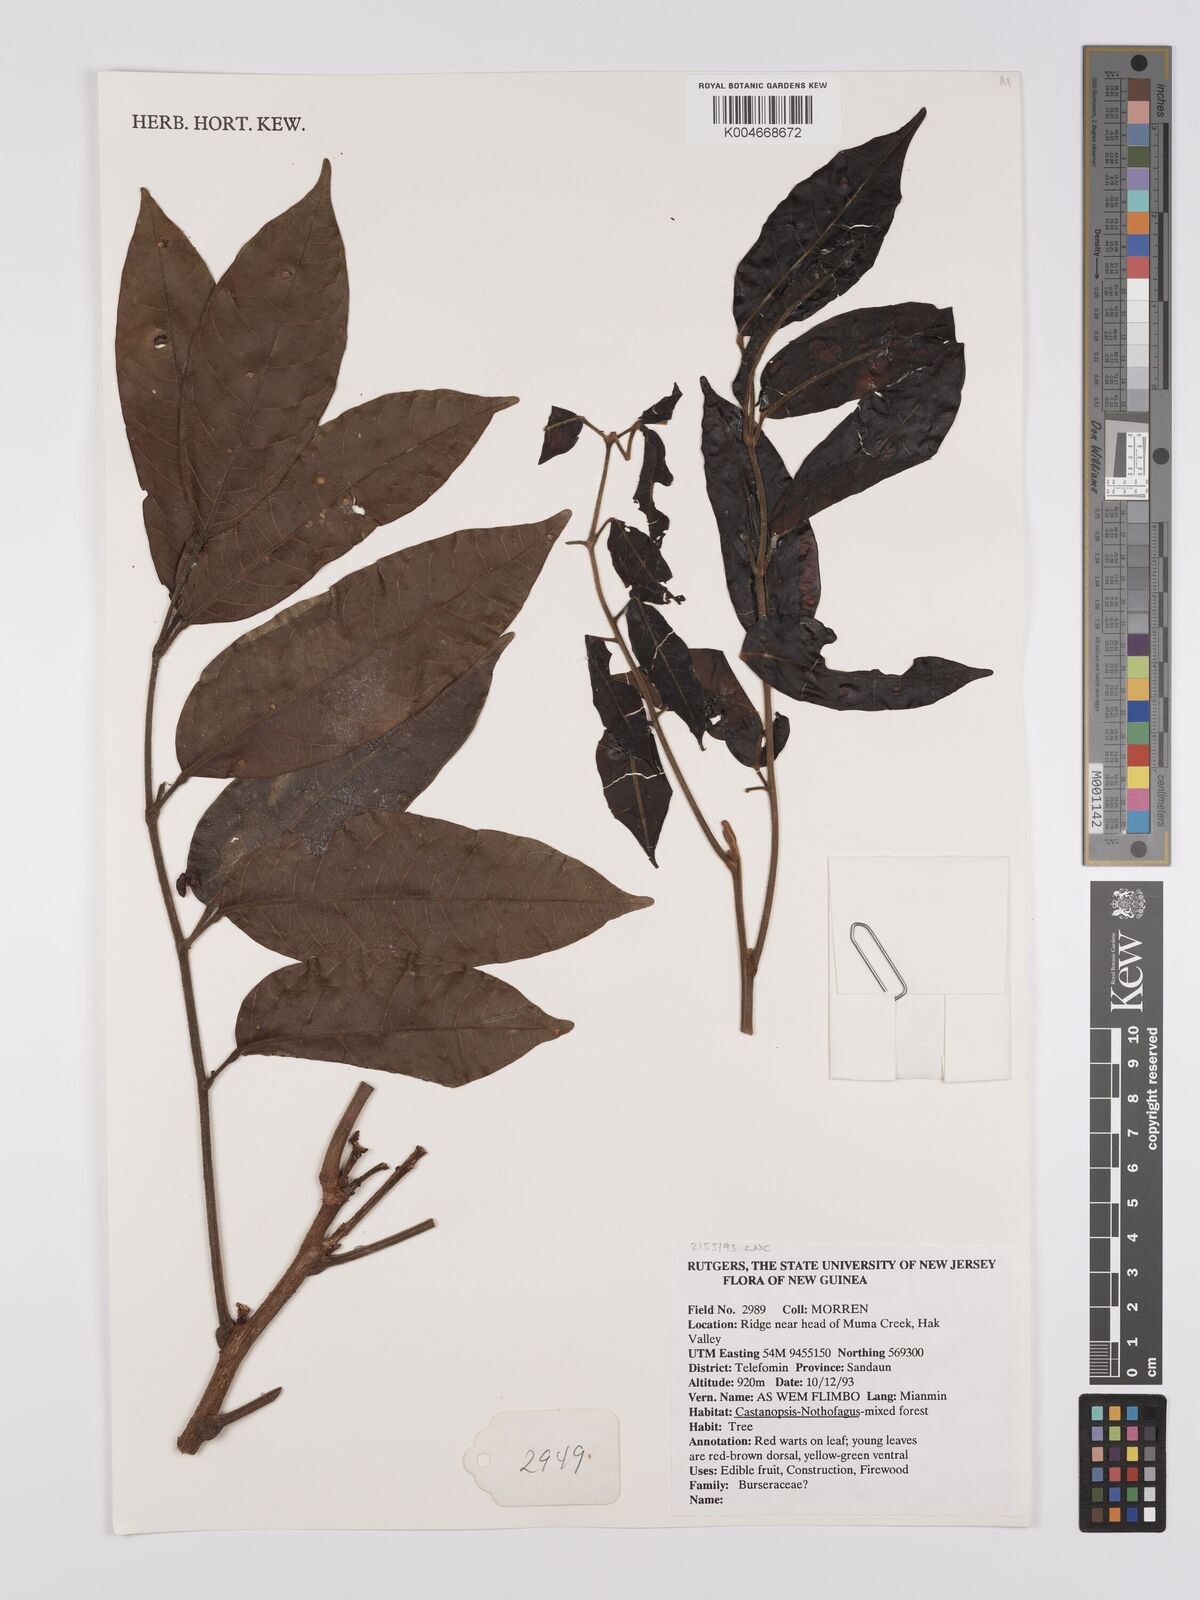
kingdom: Plantae
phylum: Tracheophyta
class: Magnoliopsida
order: Sapindales
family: Burseraceae
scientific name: Burseraceae
